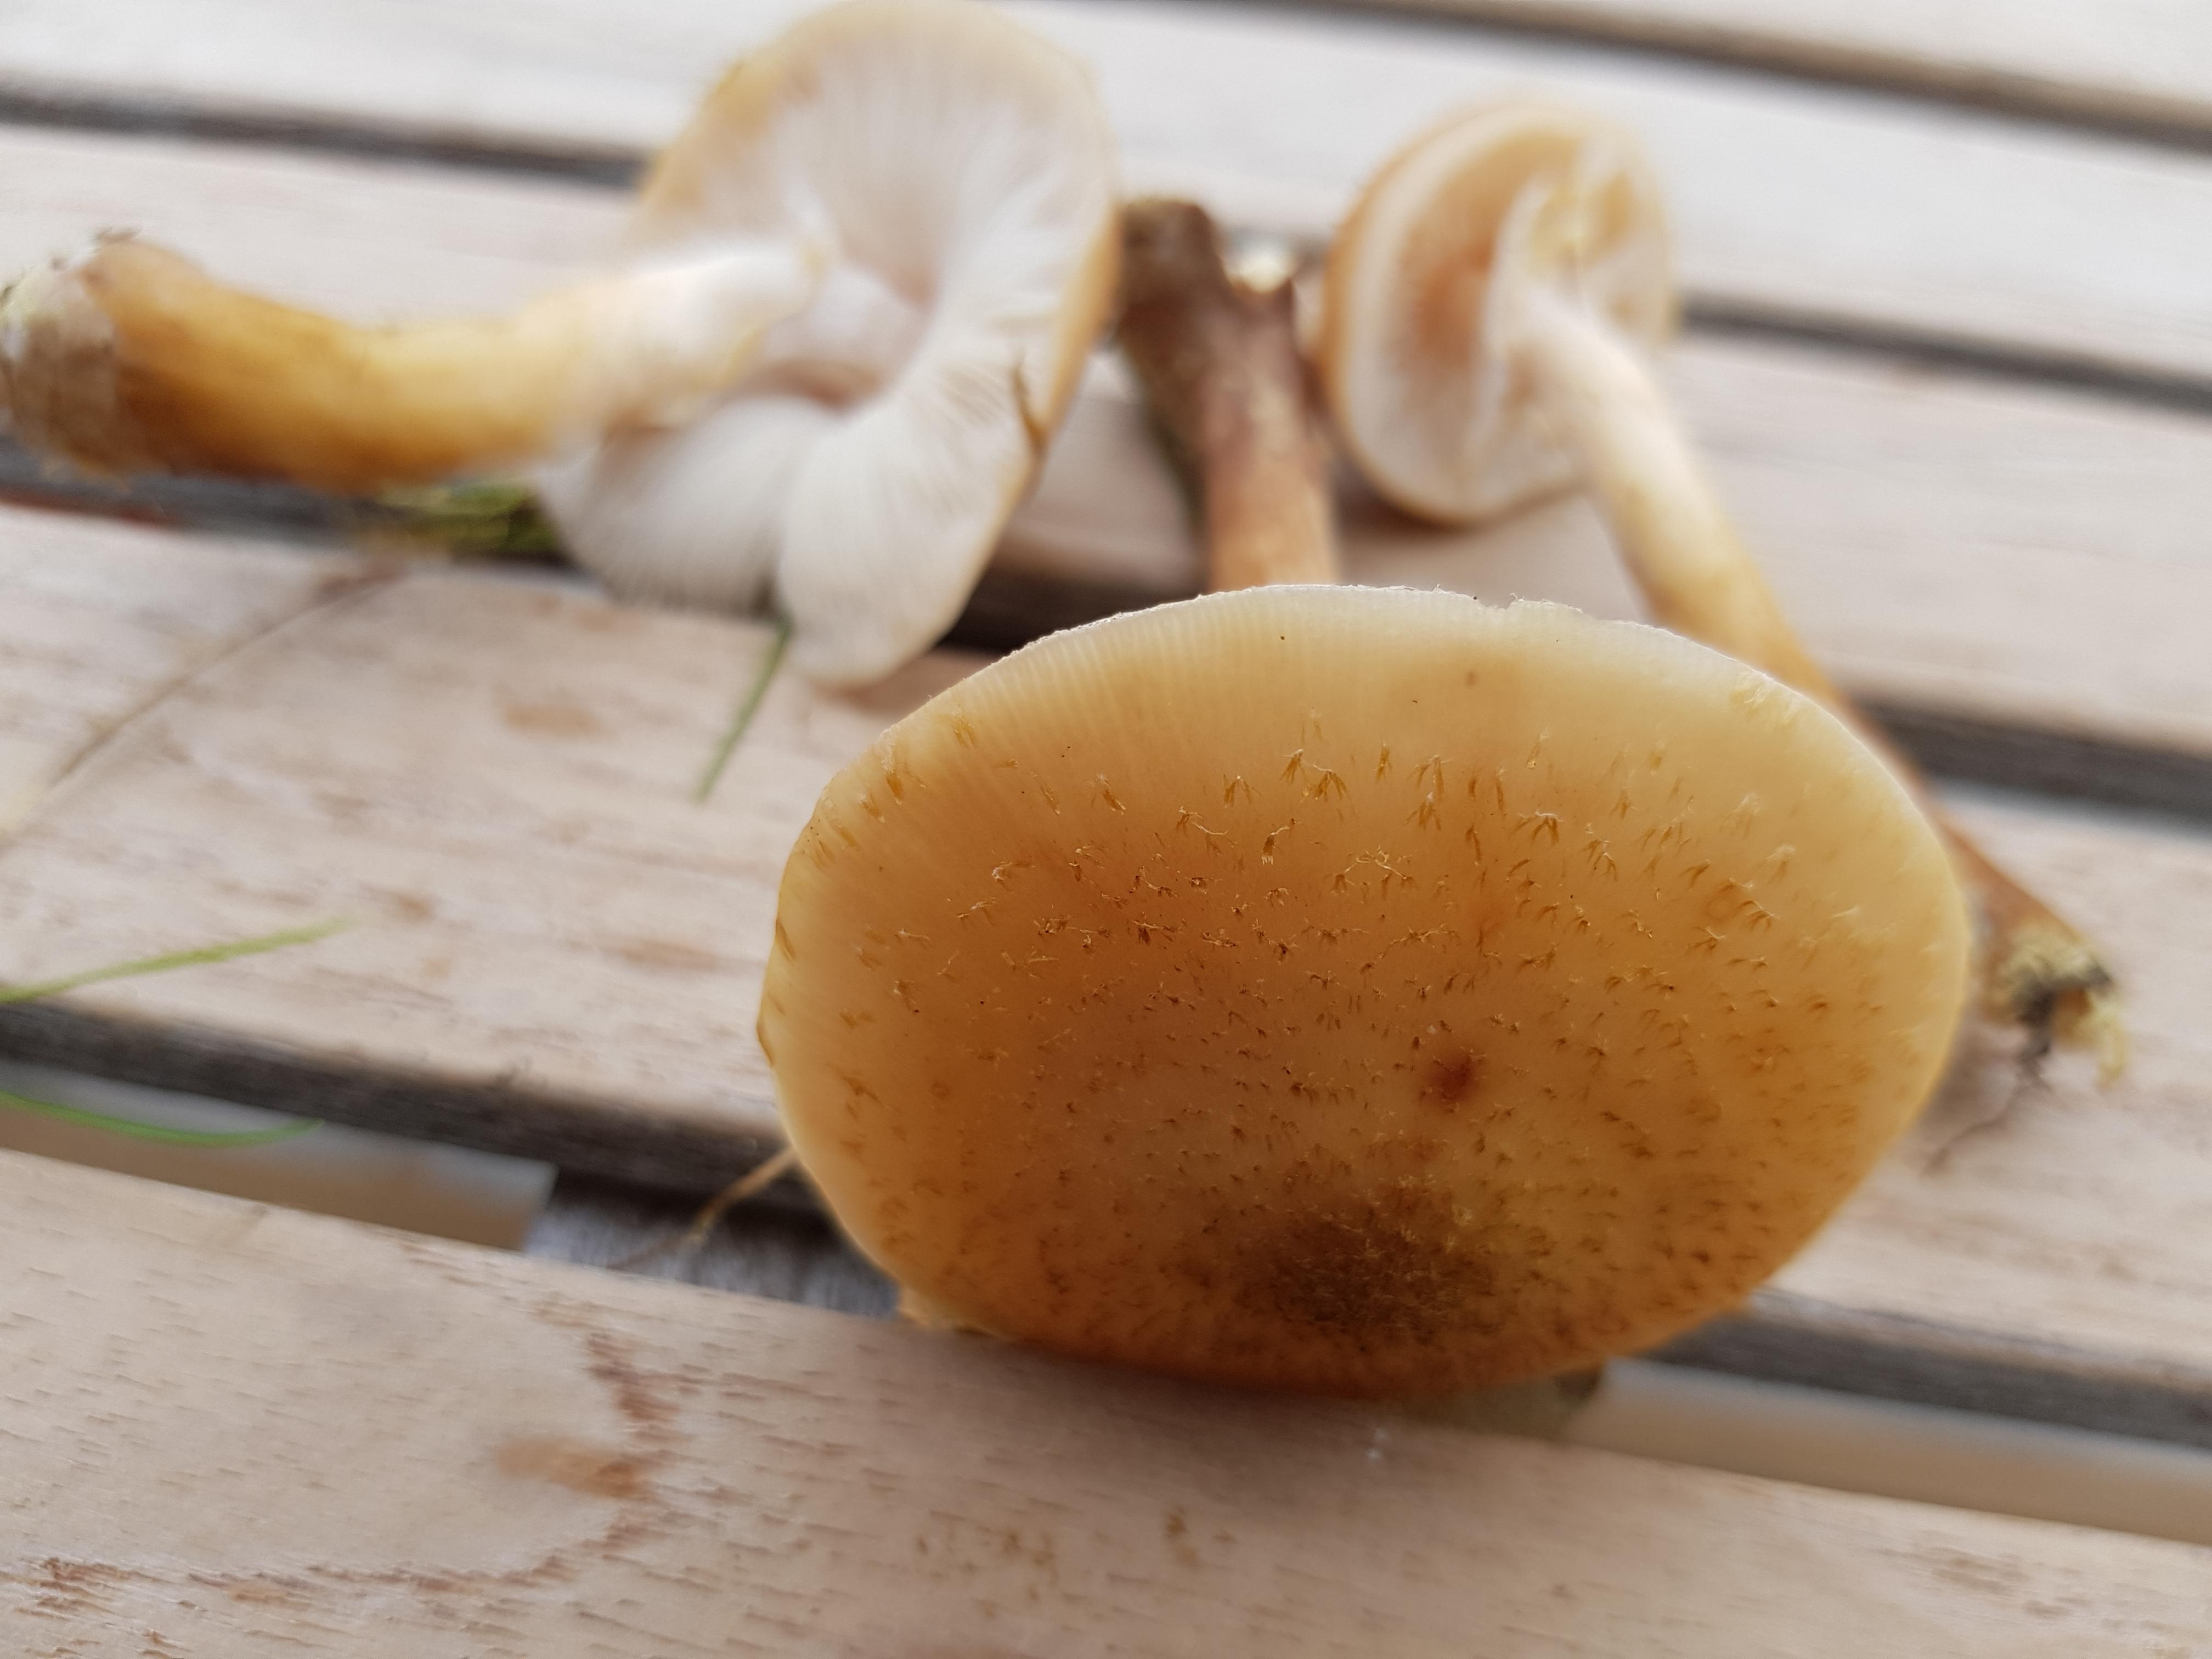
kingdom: Fungi
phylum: Basidiomycota
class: Agaricomycetes
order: Agaricales
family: Physalacriaceae
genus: Armillaria
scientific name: Armillaria
